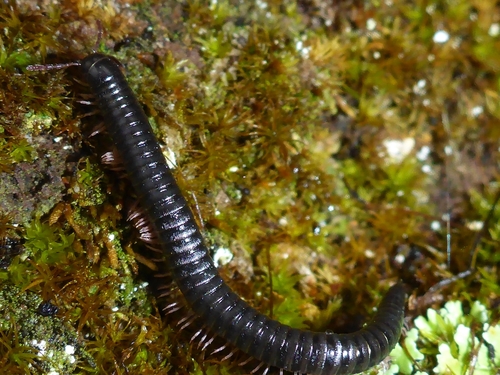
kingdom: Animalia
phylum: Arthropoda
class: Diplopoda
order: Julida
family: Julidae
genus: Ommatoiulus
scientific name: Ommatoiulus moreleti
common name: Portuguese millipede
